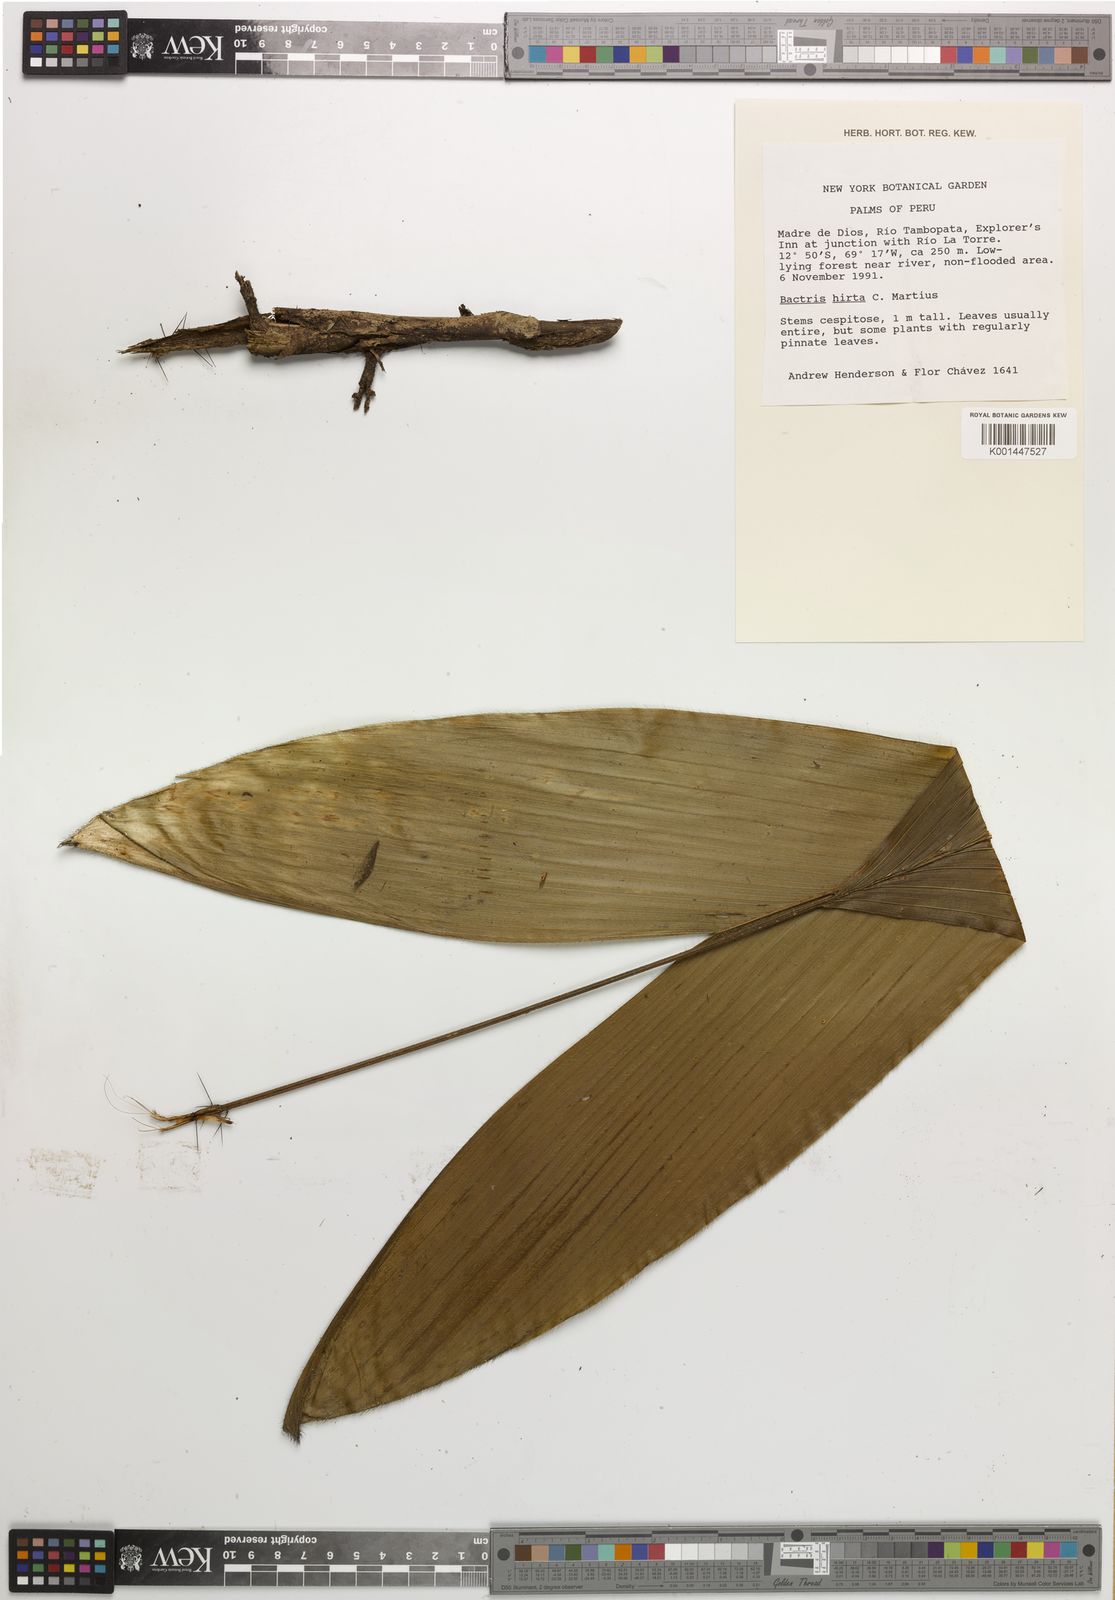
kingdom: Plantae
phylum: Tracheophyta
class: Liliopsida
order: Arecales
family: Arecaceae
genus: Bactris
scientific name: Bactris hirta
